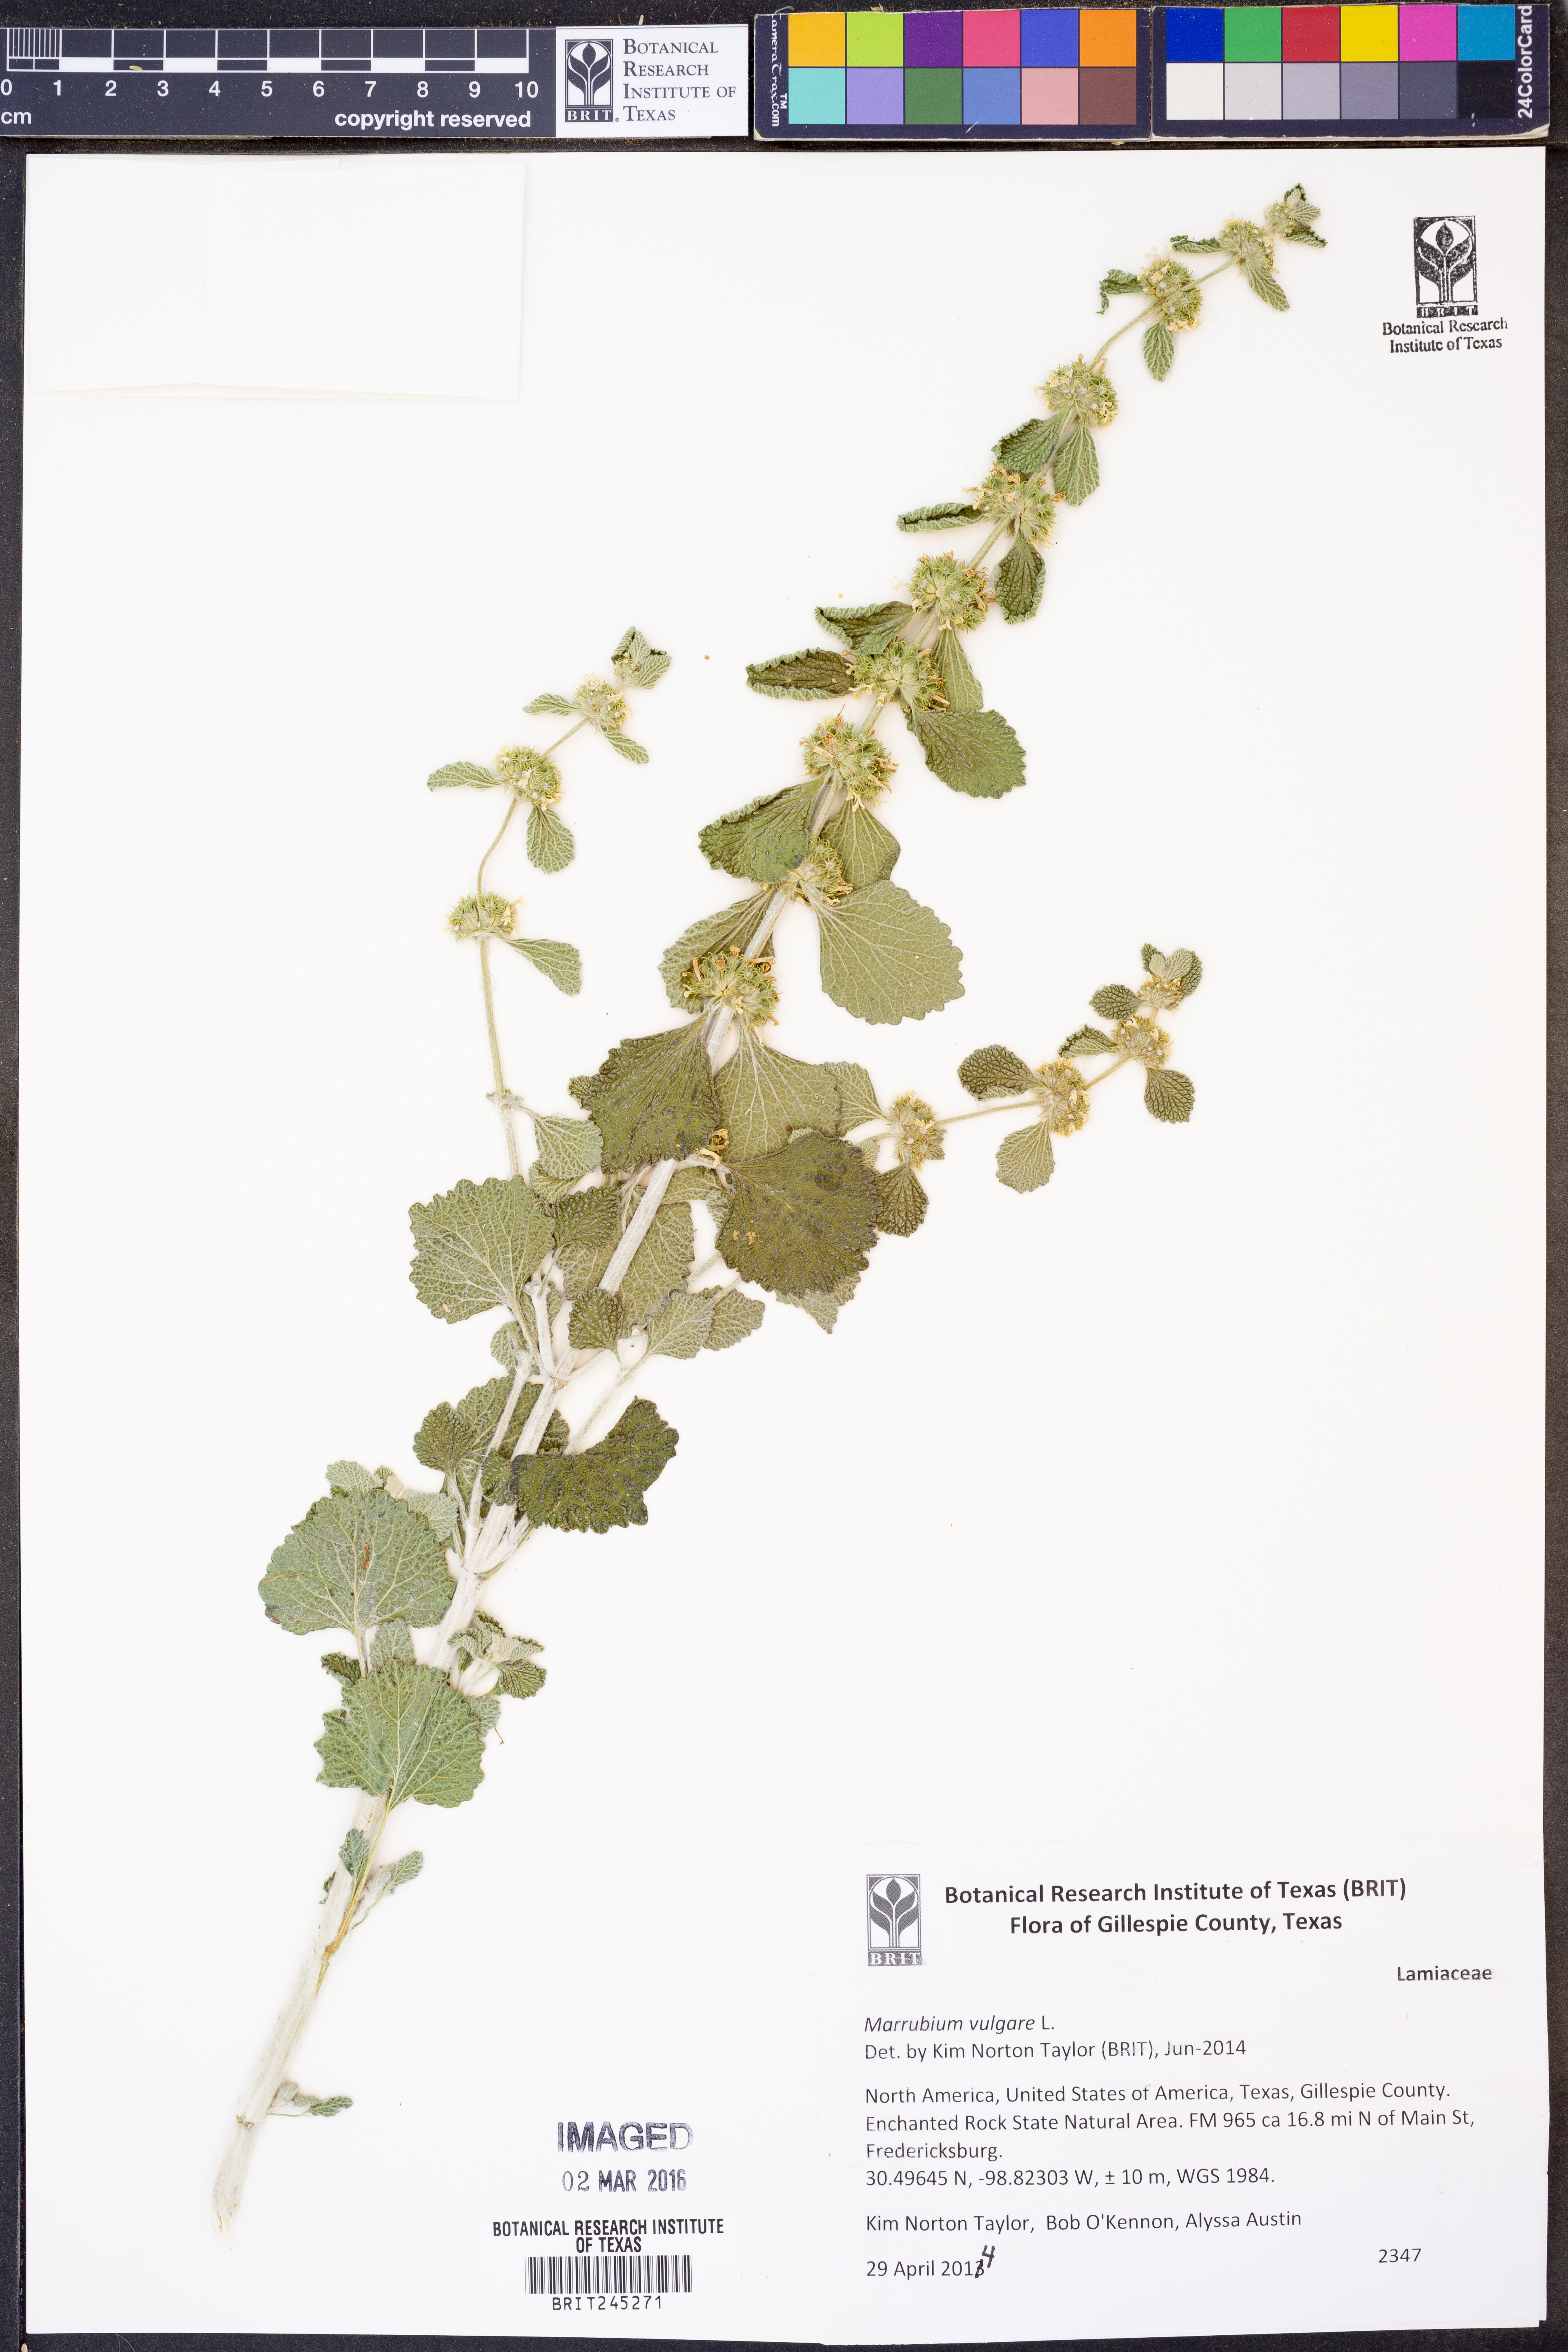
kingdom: Plantae
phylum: Tracheophyta
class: Magnoliopsida
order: Lamiales
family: Lamiaceae
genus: Marrubium
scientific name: Marrubium vulgare
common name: Horehound
